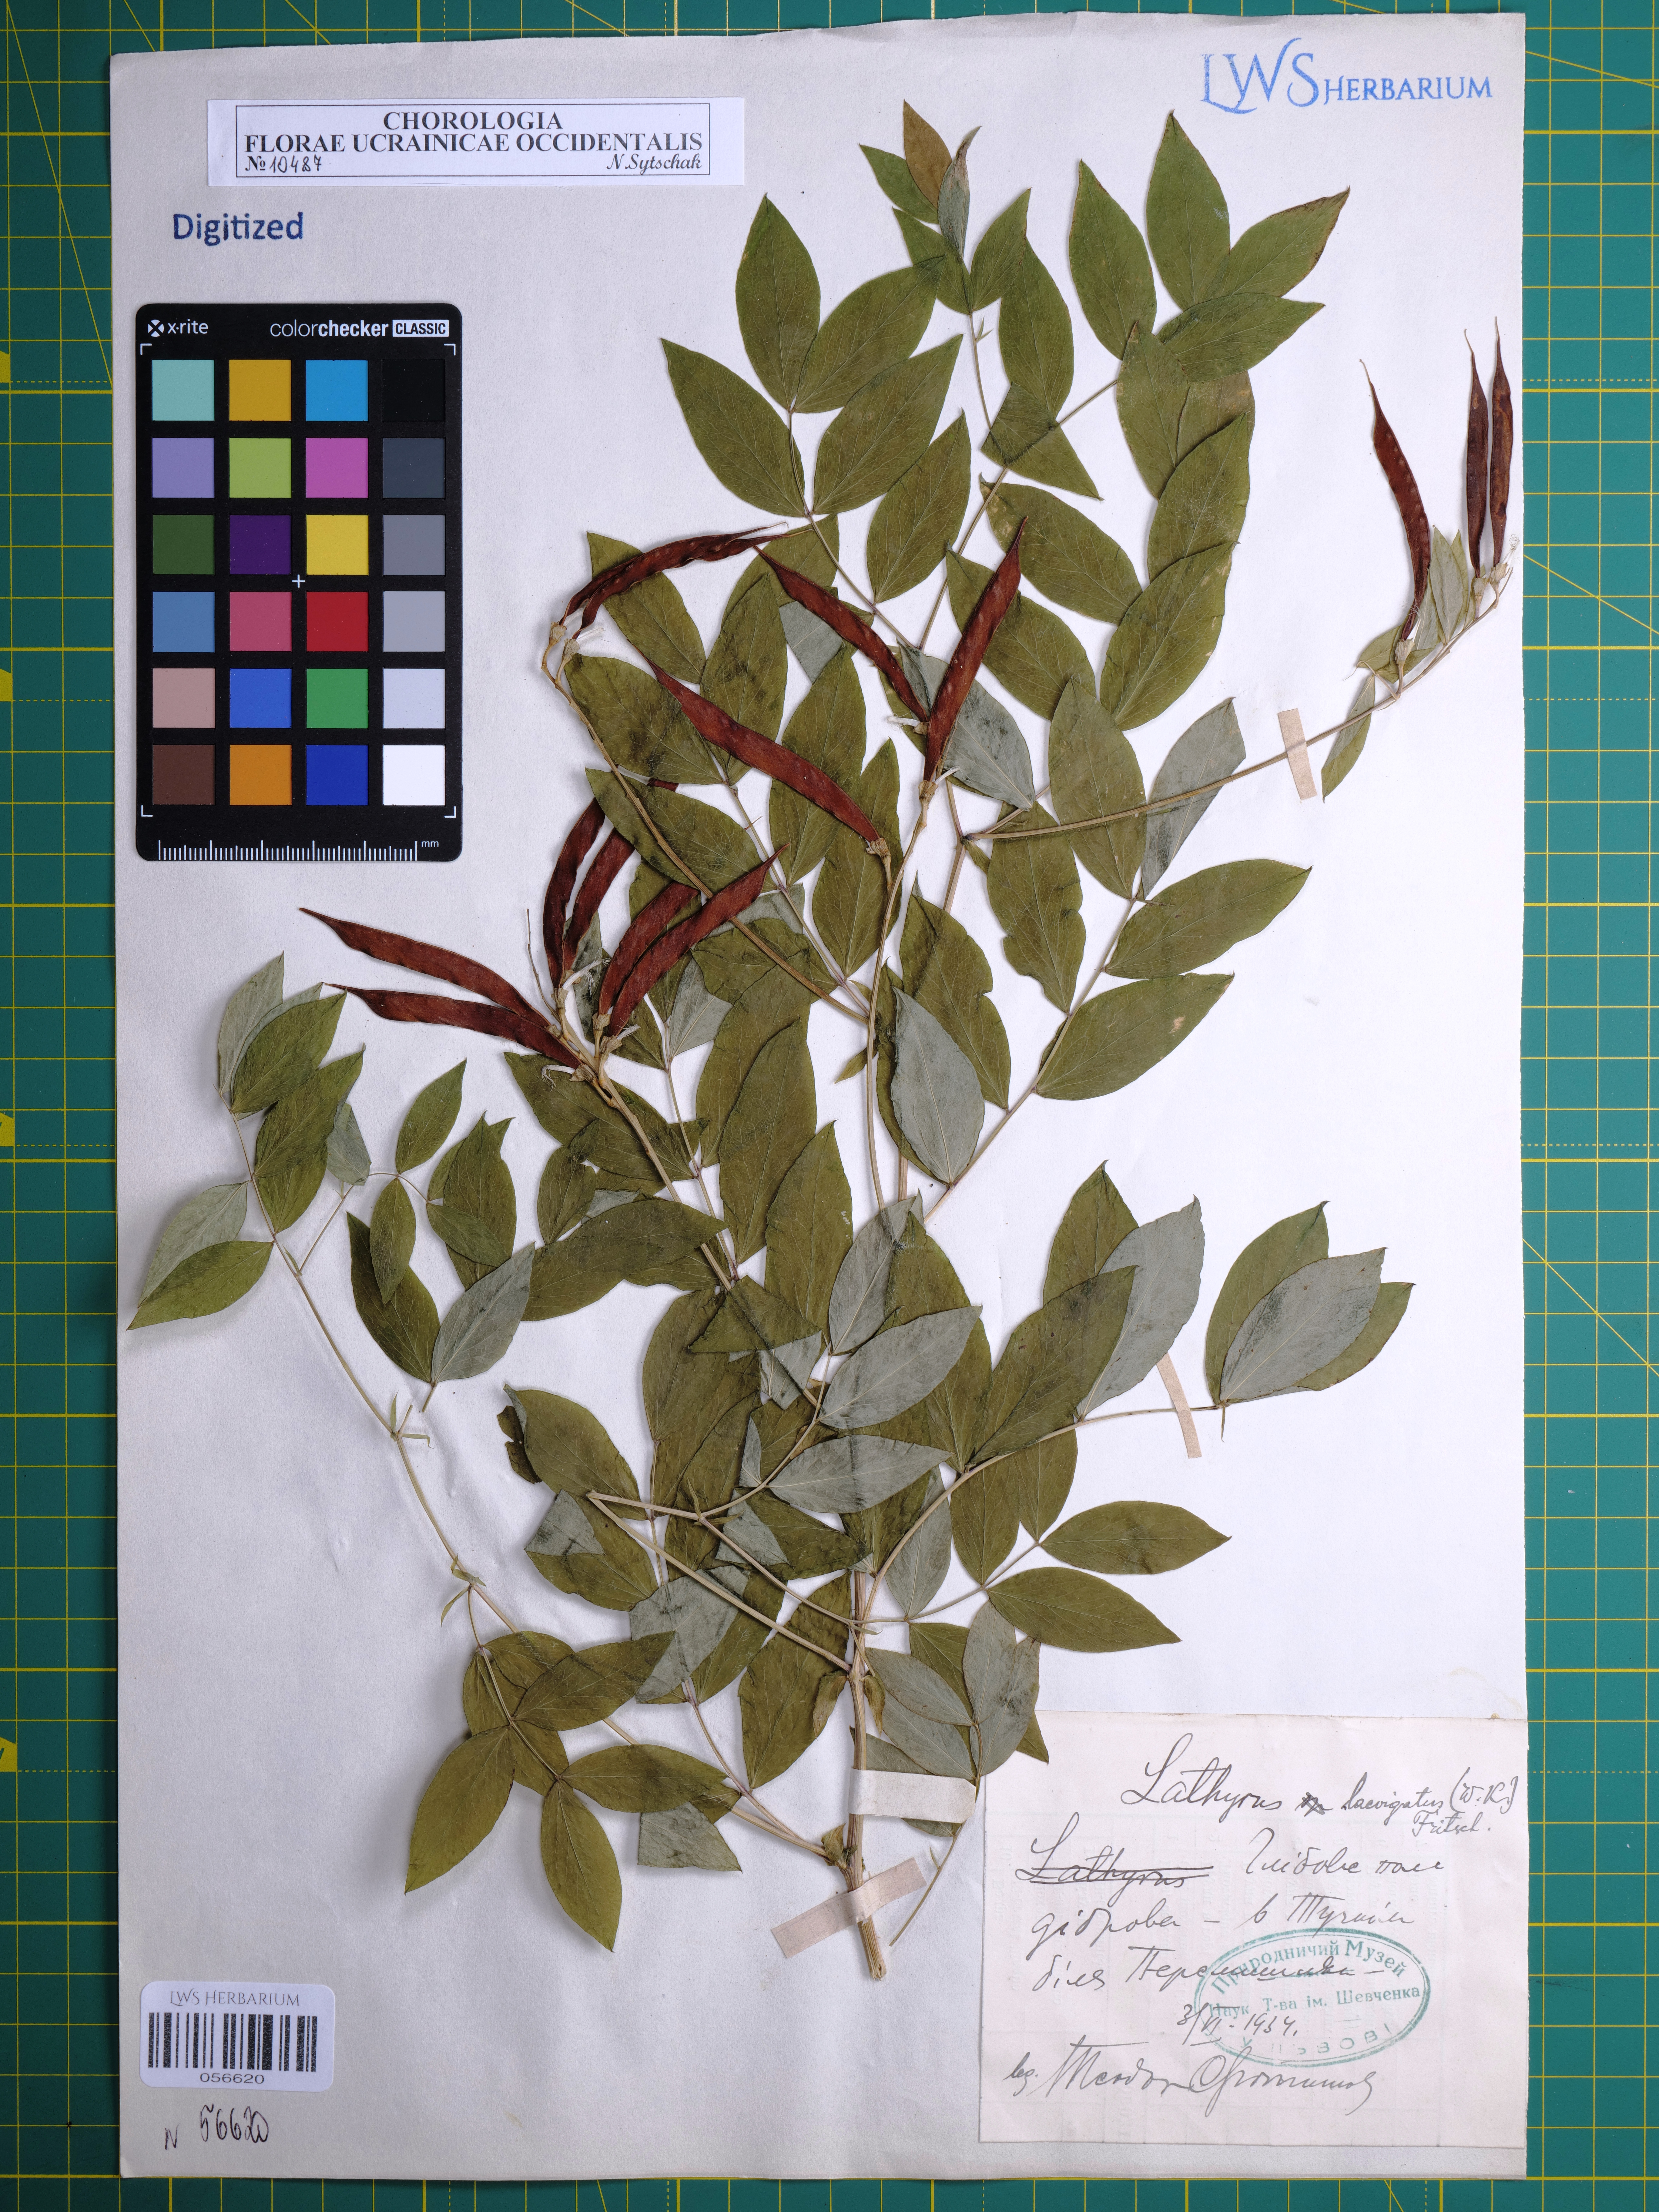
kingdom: Plantae
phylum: Tracheophyta
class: Magnoliopsida
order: Fabales
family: Fabaceae
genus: Lathyrus
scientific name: Lathyrus laevigatus
